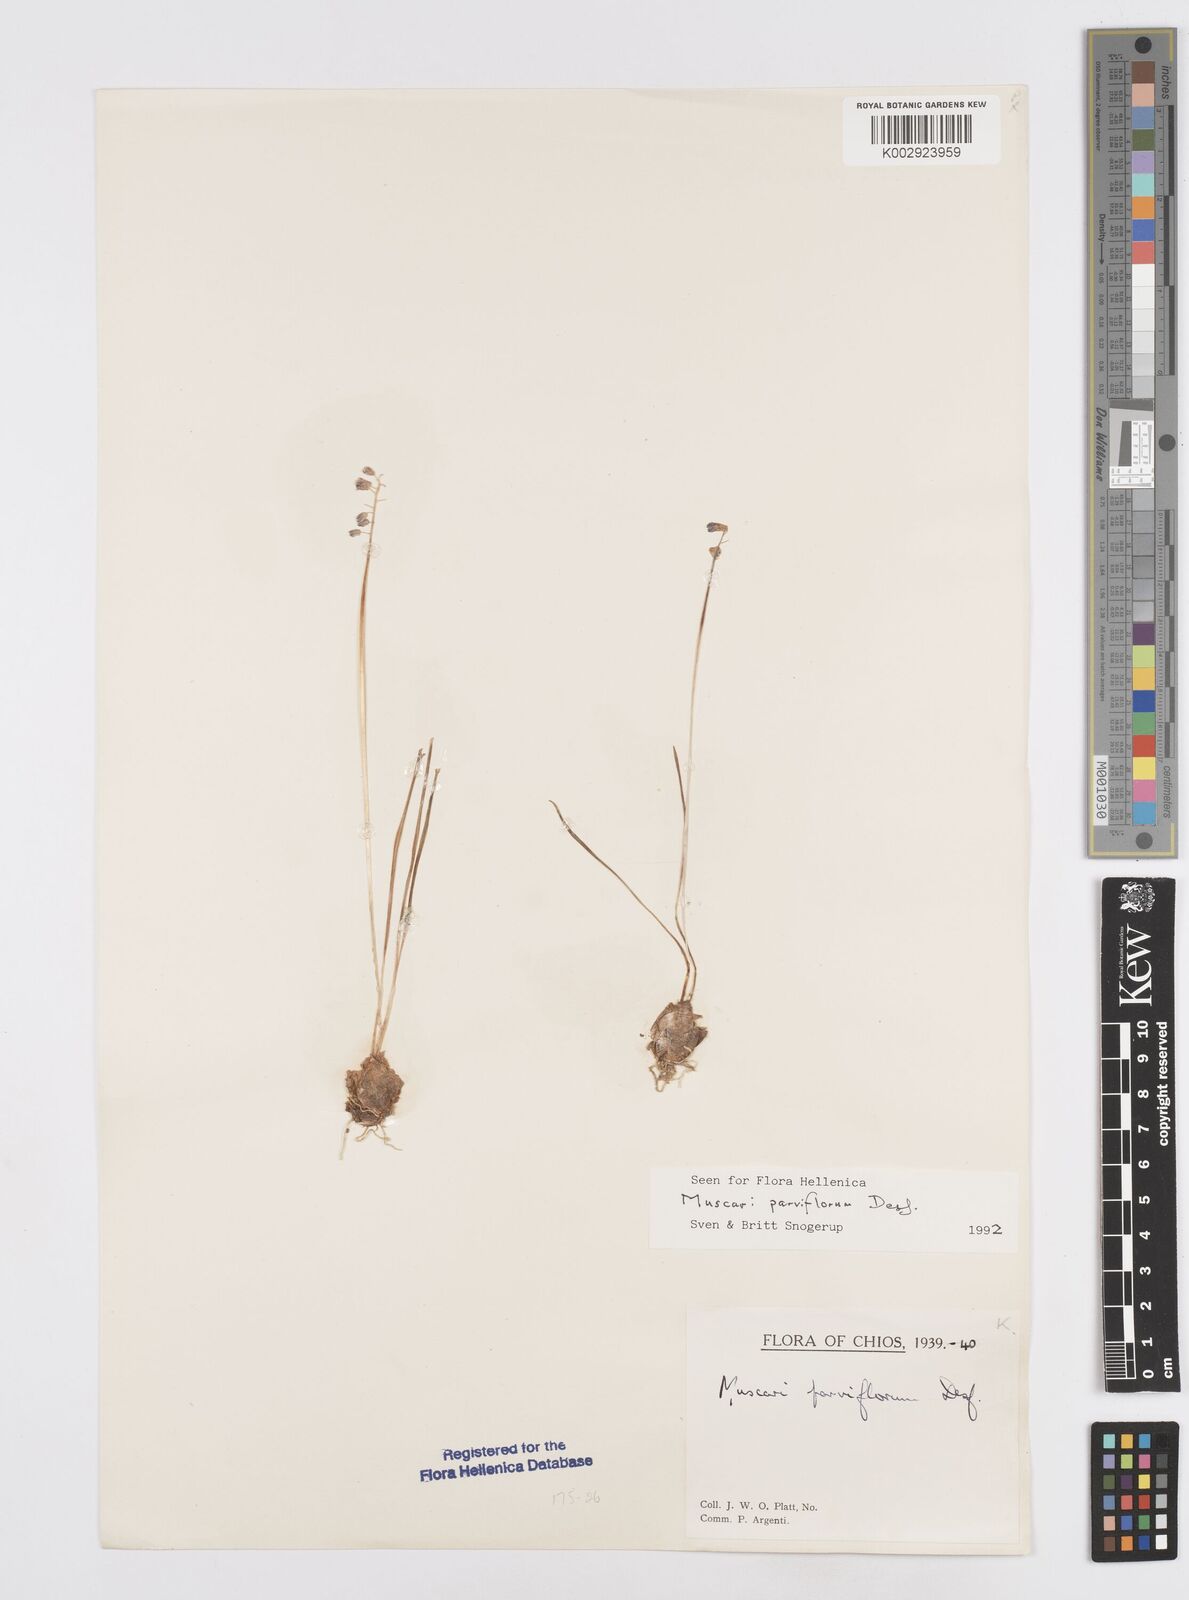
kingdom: Plantae
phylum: Tracheophyta
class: Liliopsida
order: Asparagales
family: Asparagaceae
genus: Muscari
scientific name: Muscari parviflorum
